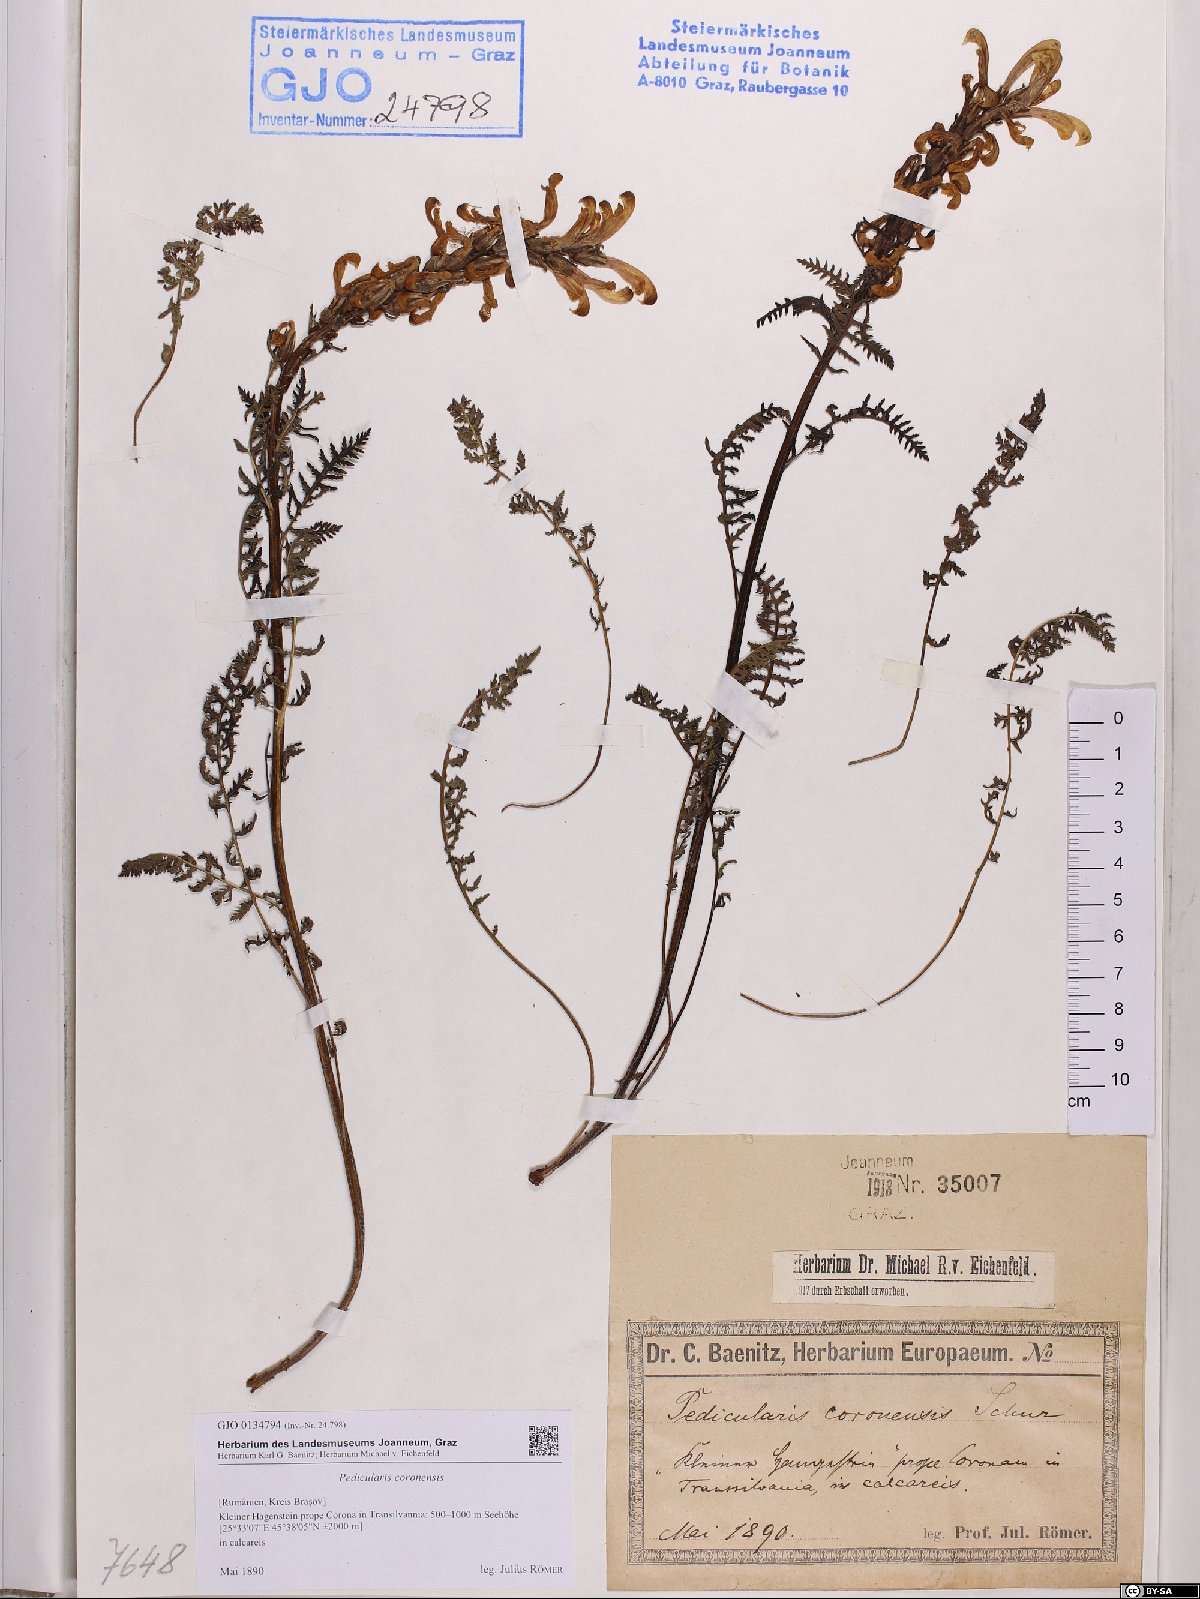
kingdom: Plantae
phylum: Tracheophyta
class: Magnoliopsida
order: Lamiales
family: Orobanchaceae
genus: Pedicularis
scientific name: Pedicularis comosa
